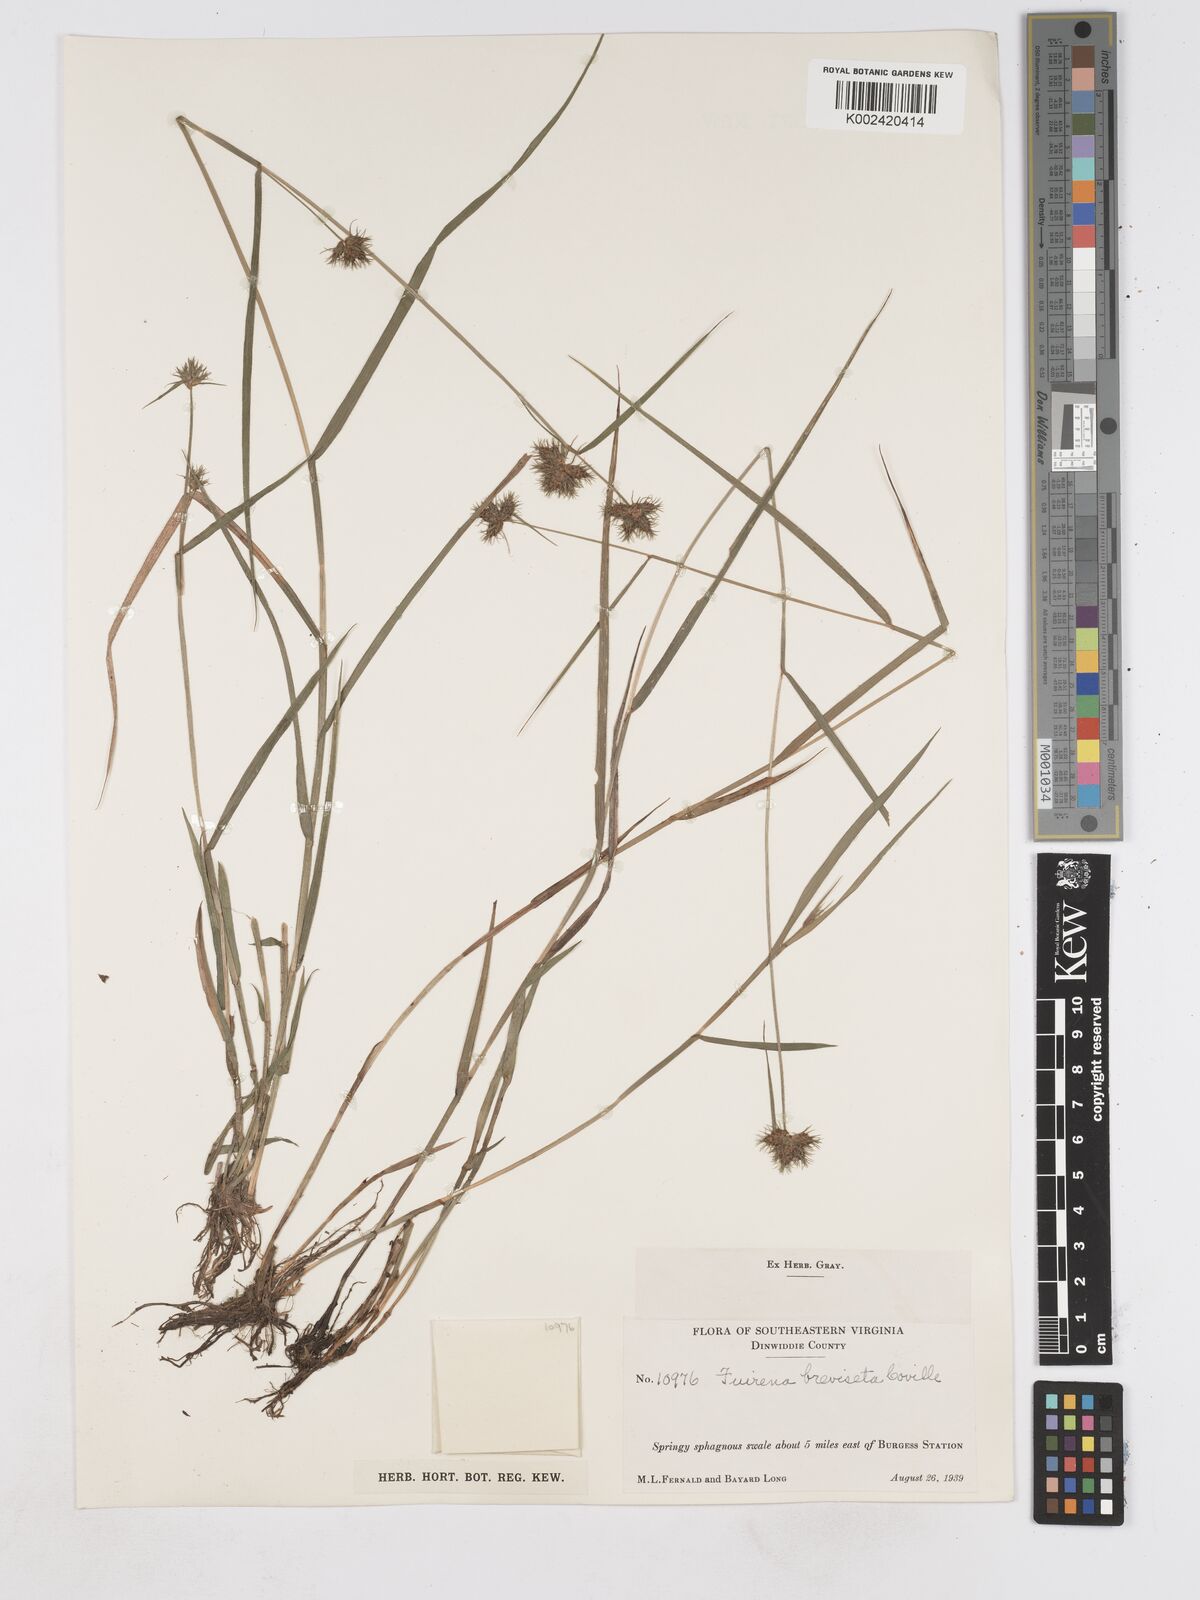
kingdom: Plantae
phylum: Tracheophyta
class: Liliopsida
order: Poales
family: Cyperaceae
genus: Fuirena
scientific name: Fuirena breviseta
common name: Saltmarsh umbrella sedge
